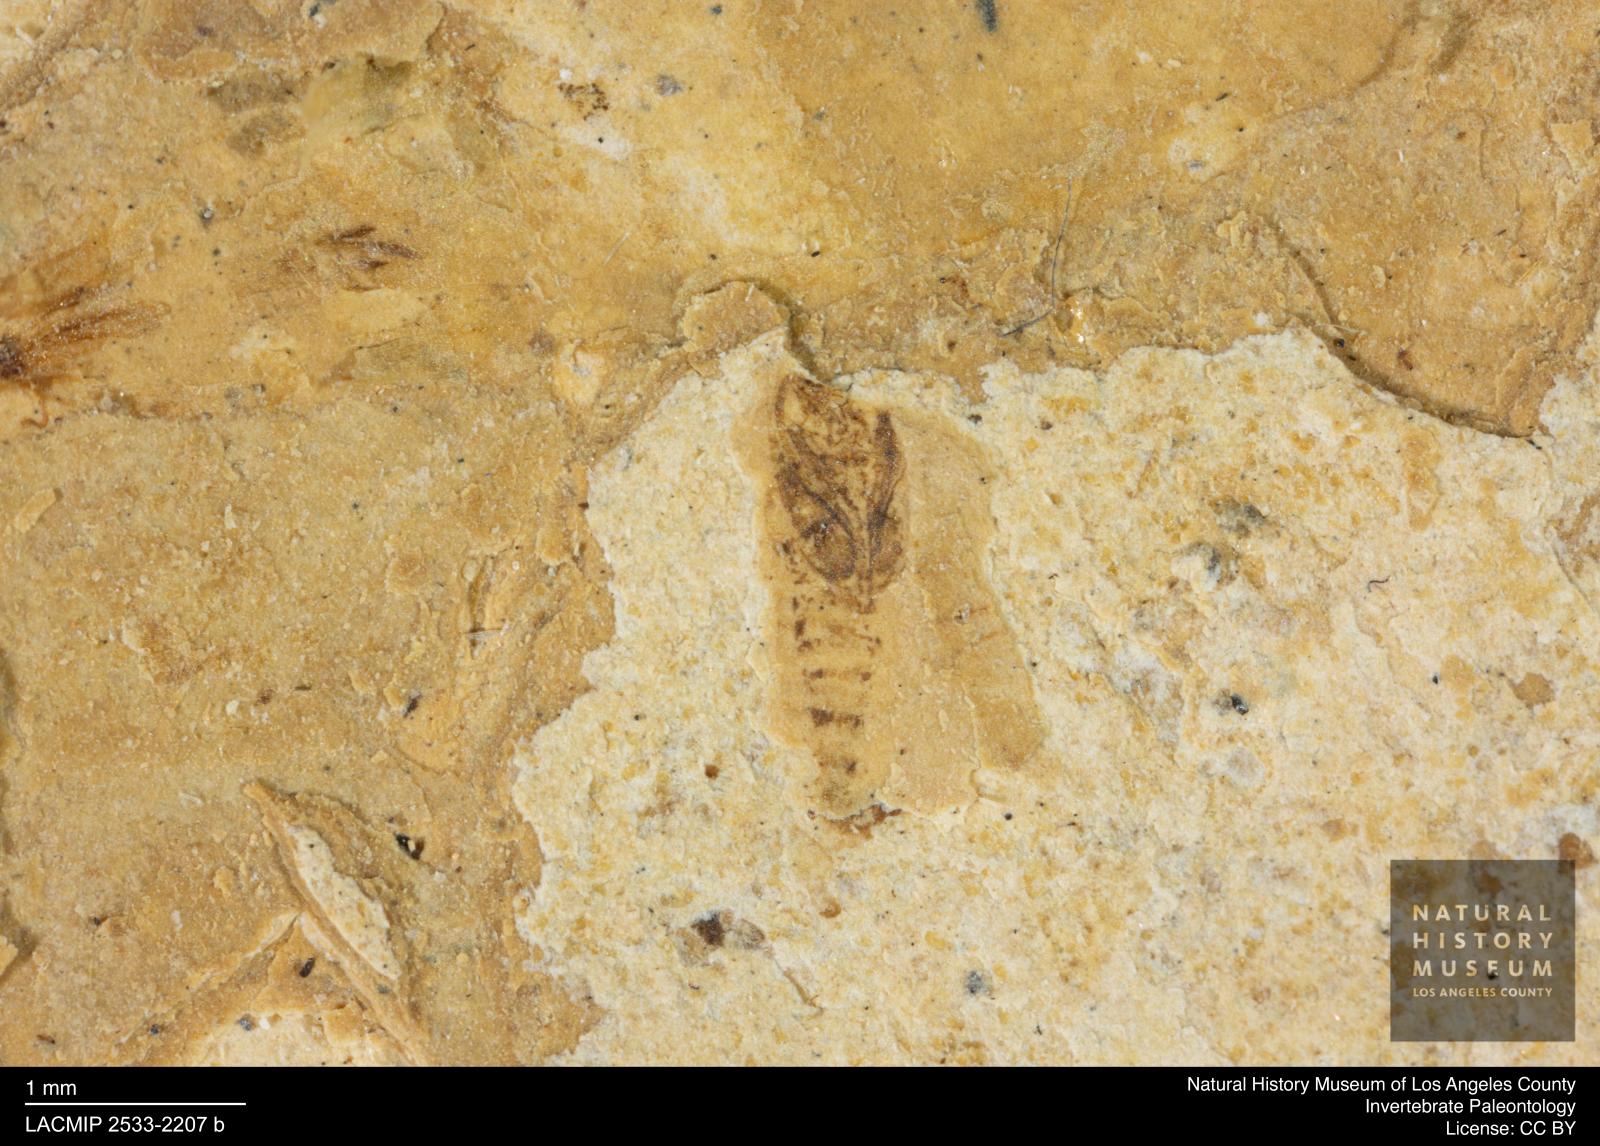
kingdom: Animalia
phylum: Arthropoda
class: Insecta
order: Diptera
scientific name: Diptera
